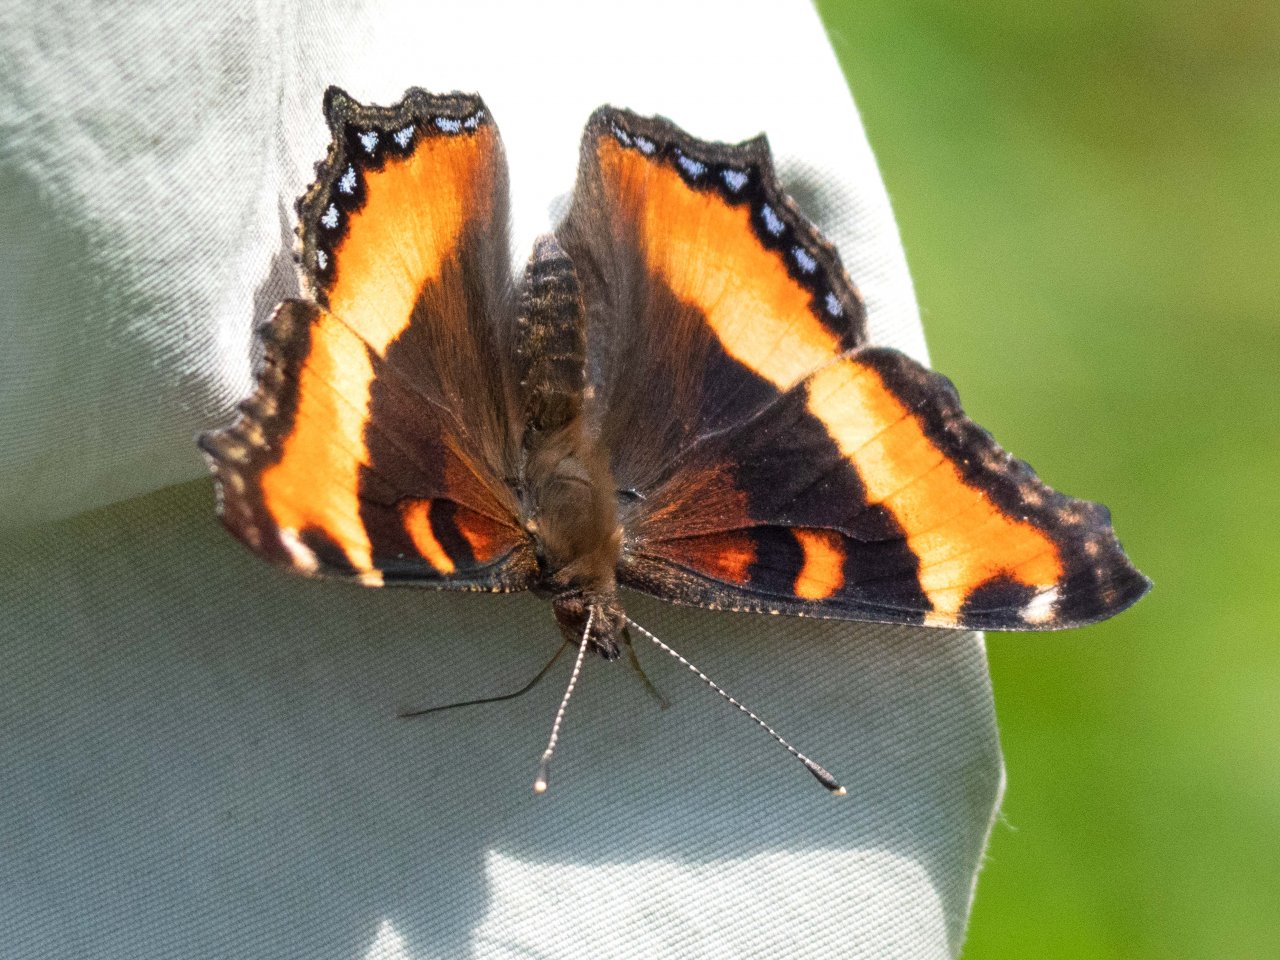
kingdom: Animalia
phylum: Arthropoda
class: Insecta
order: Lepidoptera
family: Nymphalidae
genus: Aglais
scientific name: Aglais milberti
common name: Milbert's Tortoiseshell
